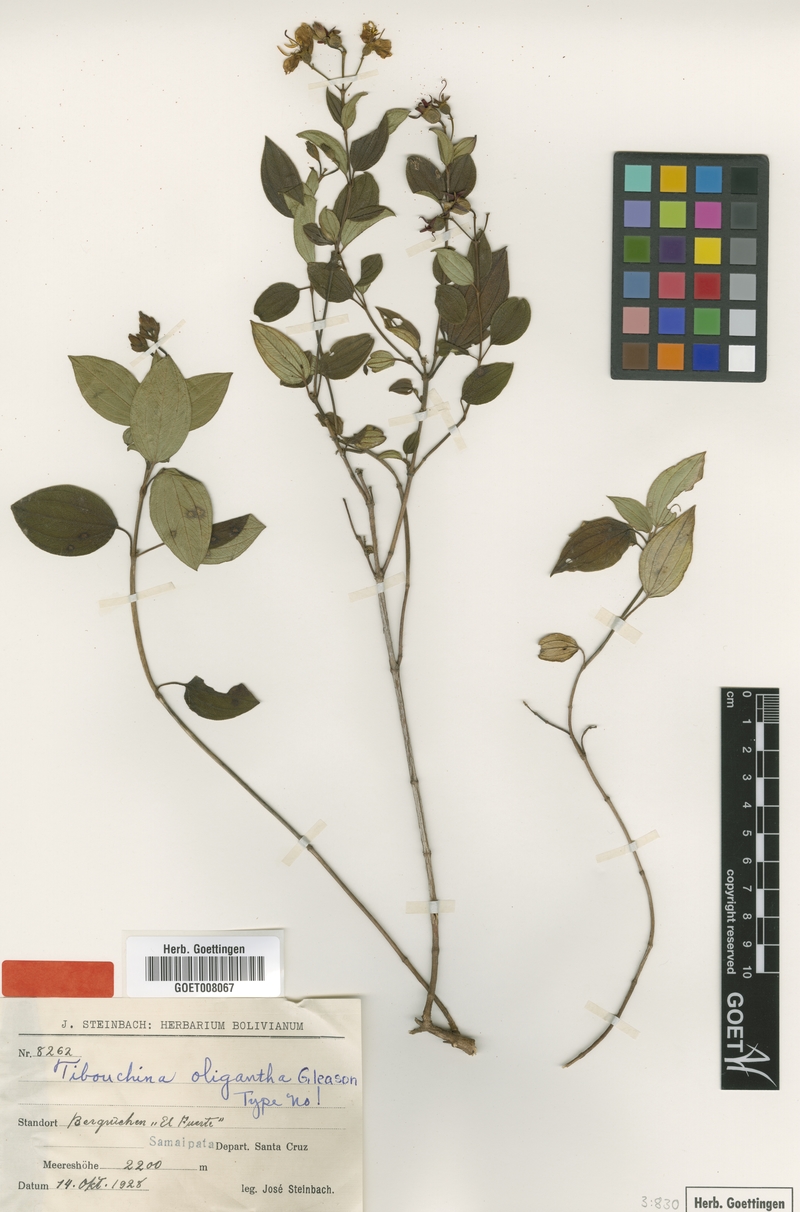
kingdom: Plantae
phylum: Tracheophyta
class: Magnoliopsida
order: Myrtales
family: Melastomataceae
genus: Chaetogastra
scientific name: Chaetogastra oligantha
